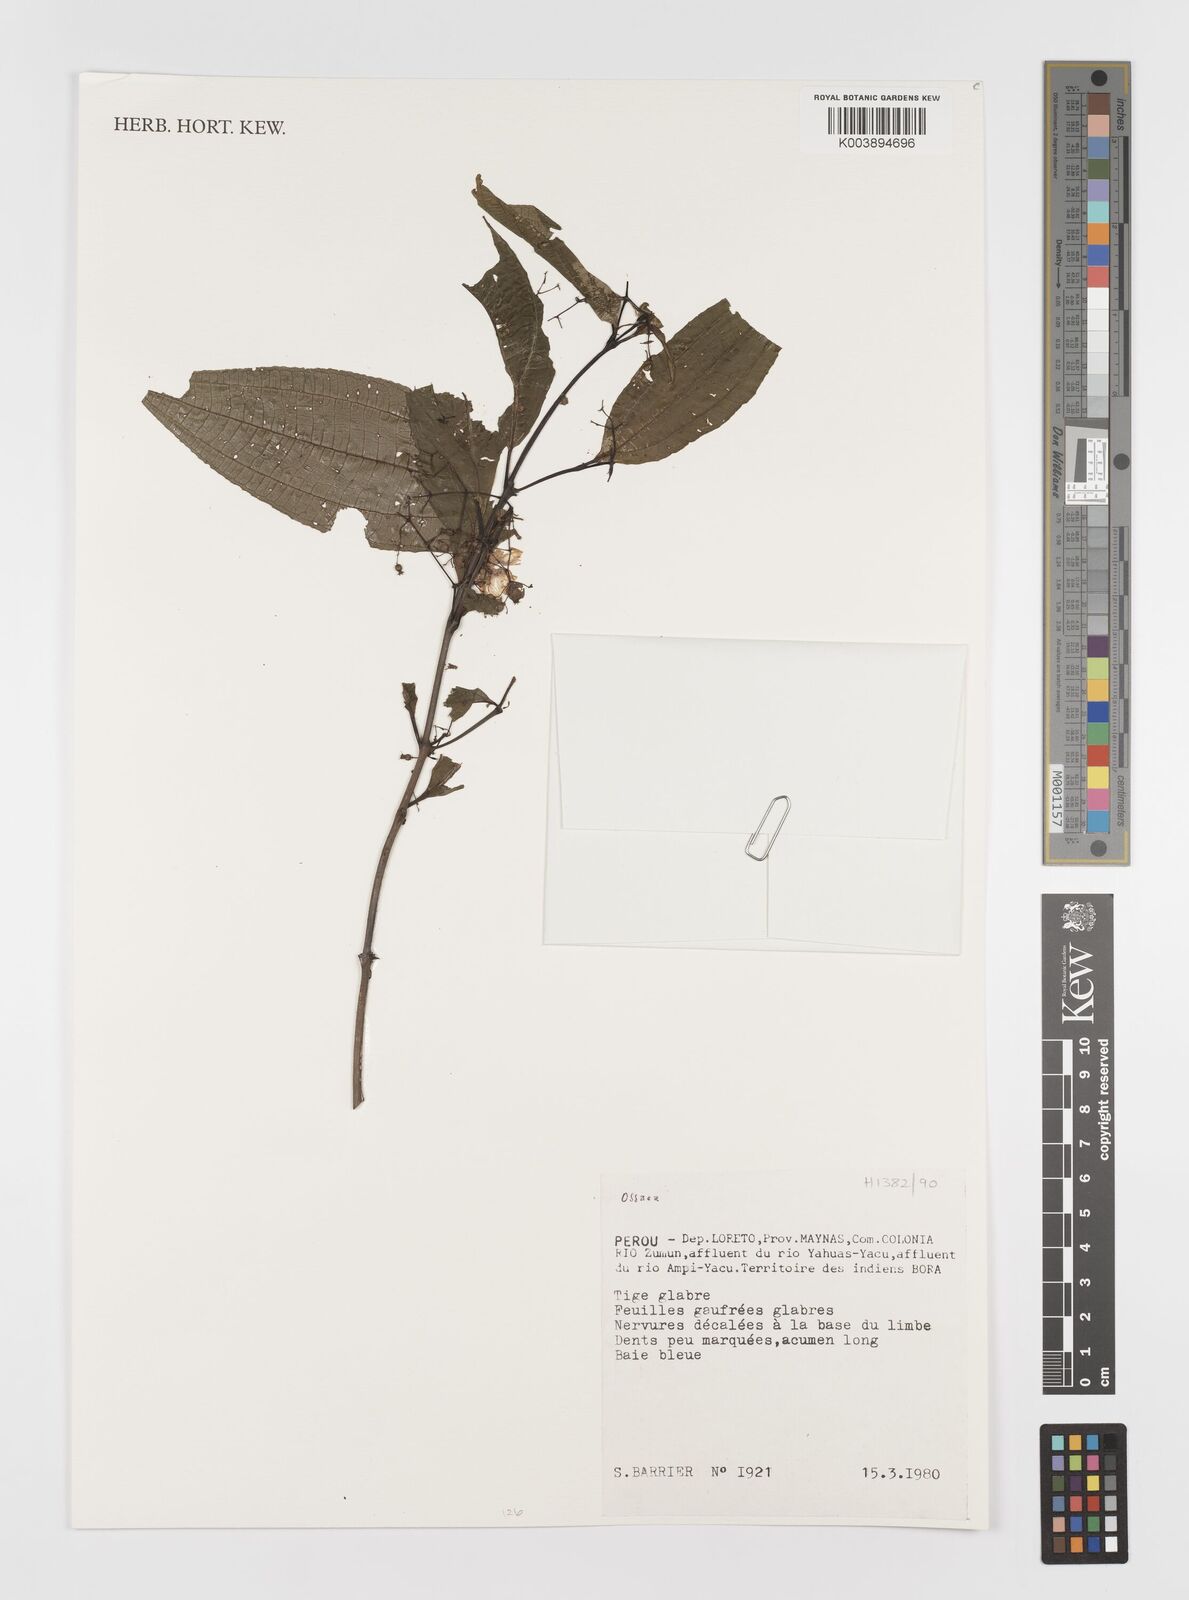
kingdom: Plantae
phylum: Tracheophyta
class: Magnoliopsida
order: Myrtales
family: Melastomataceae
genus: Ossaea
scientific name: Ossaea
